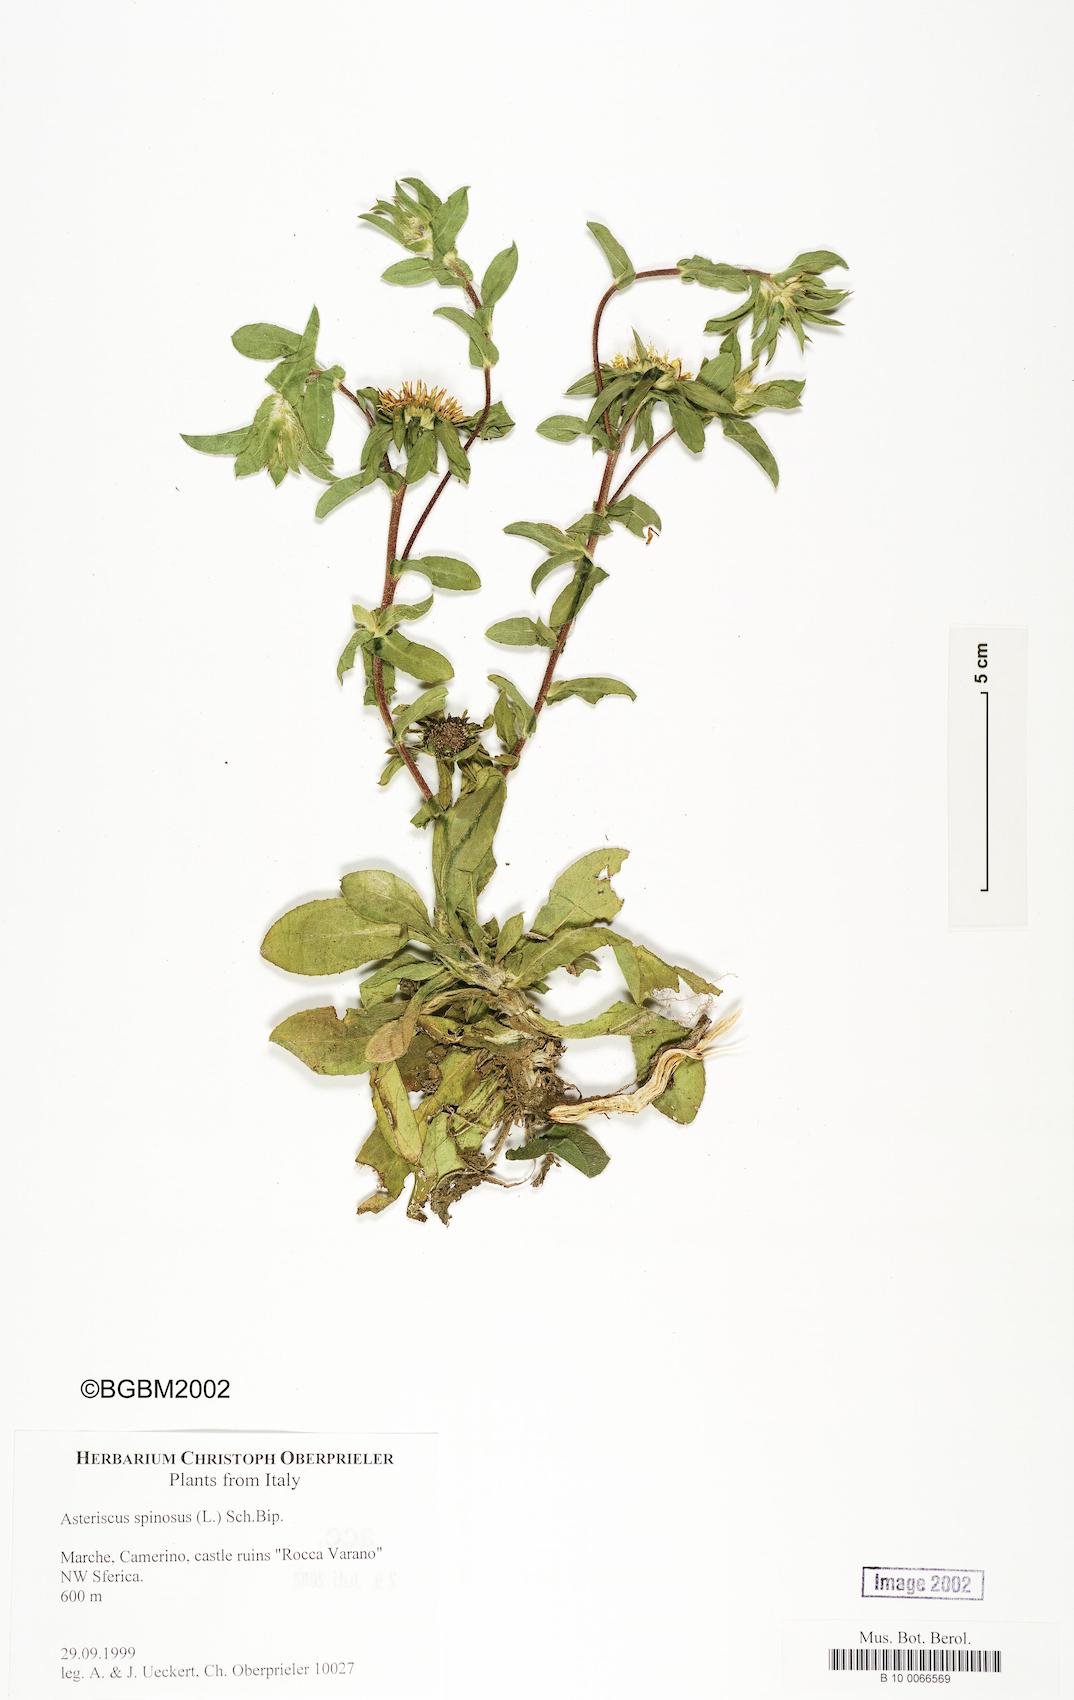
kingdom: Plantae
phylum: Tracheophyta
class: Magnoliopsida
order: Asterales
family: Asteraceae
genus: Pallenis
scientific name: Pallenis spinosa
